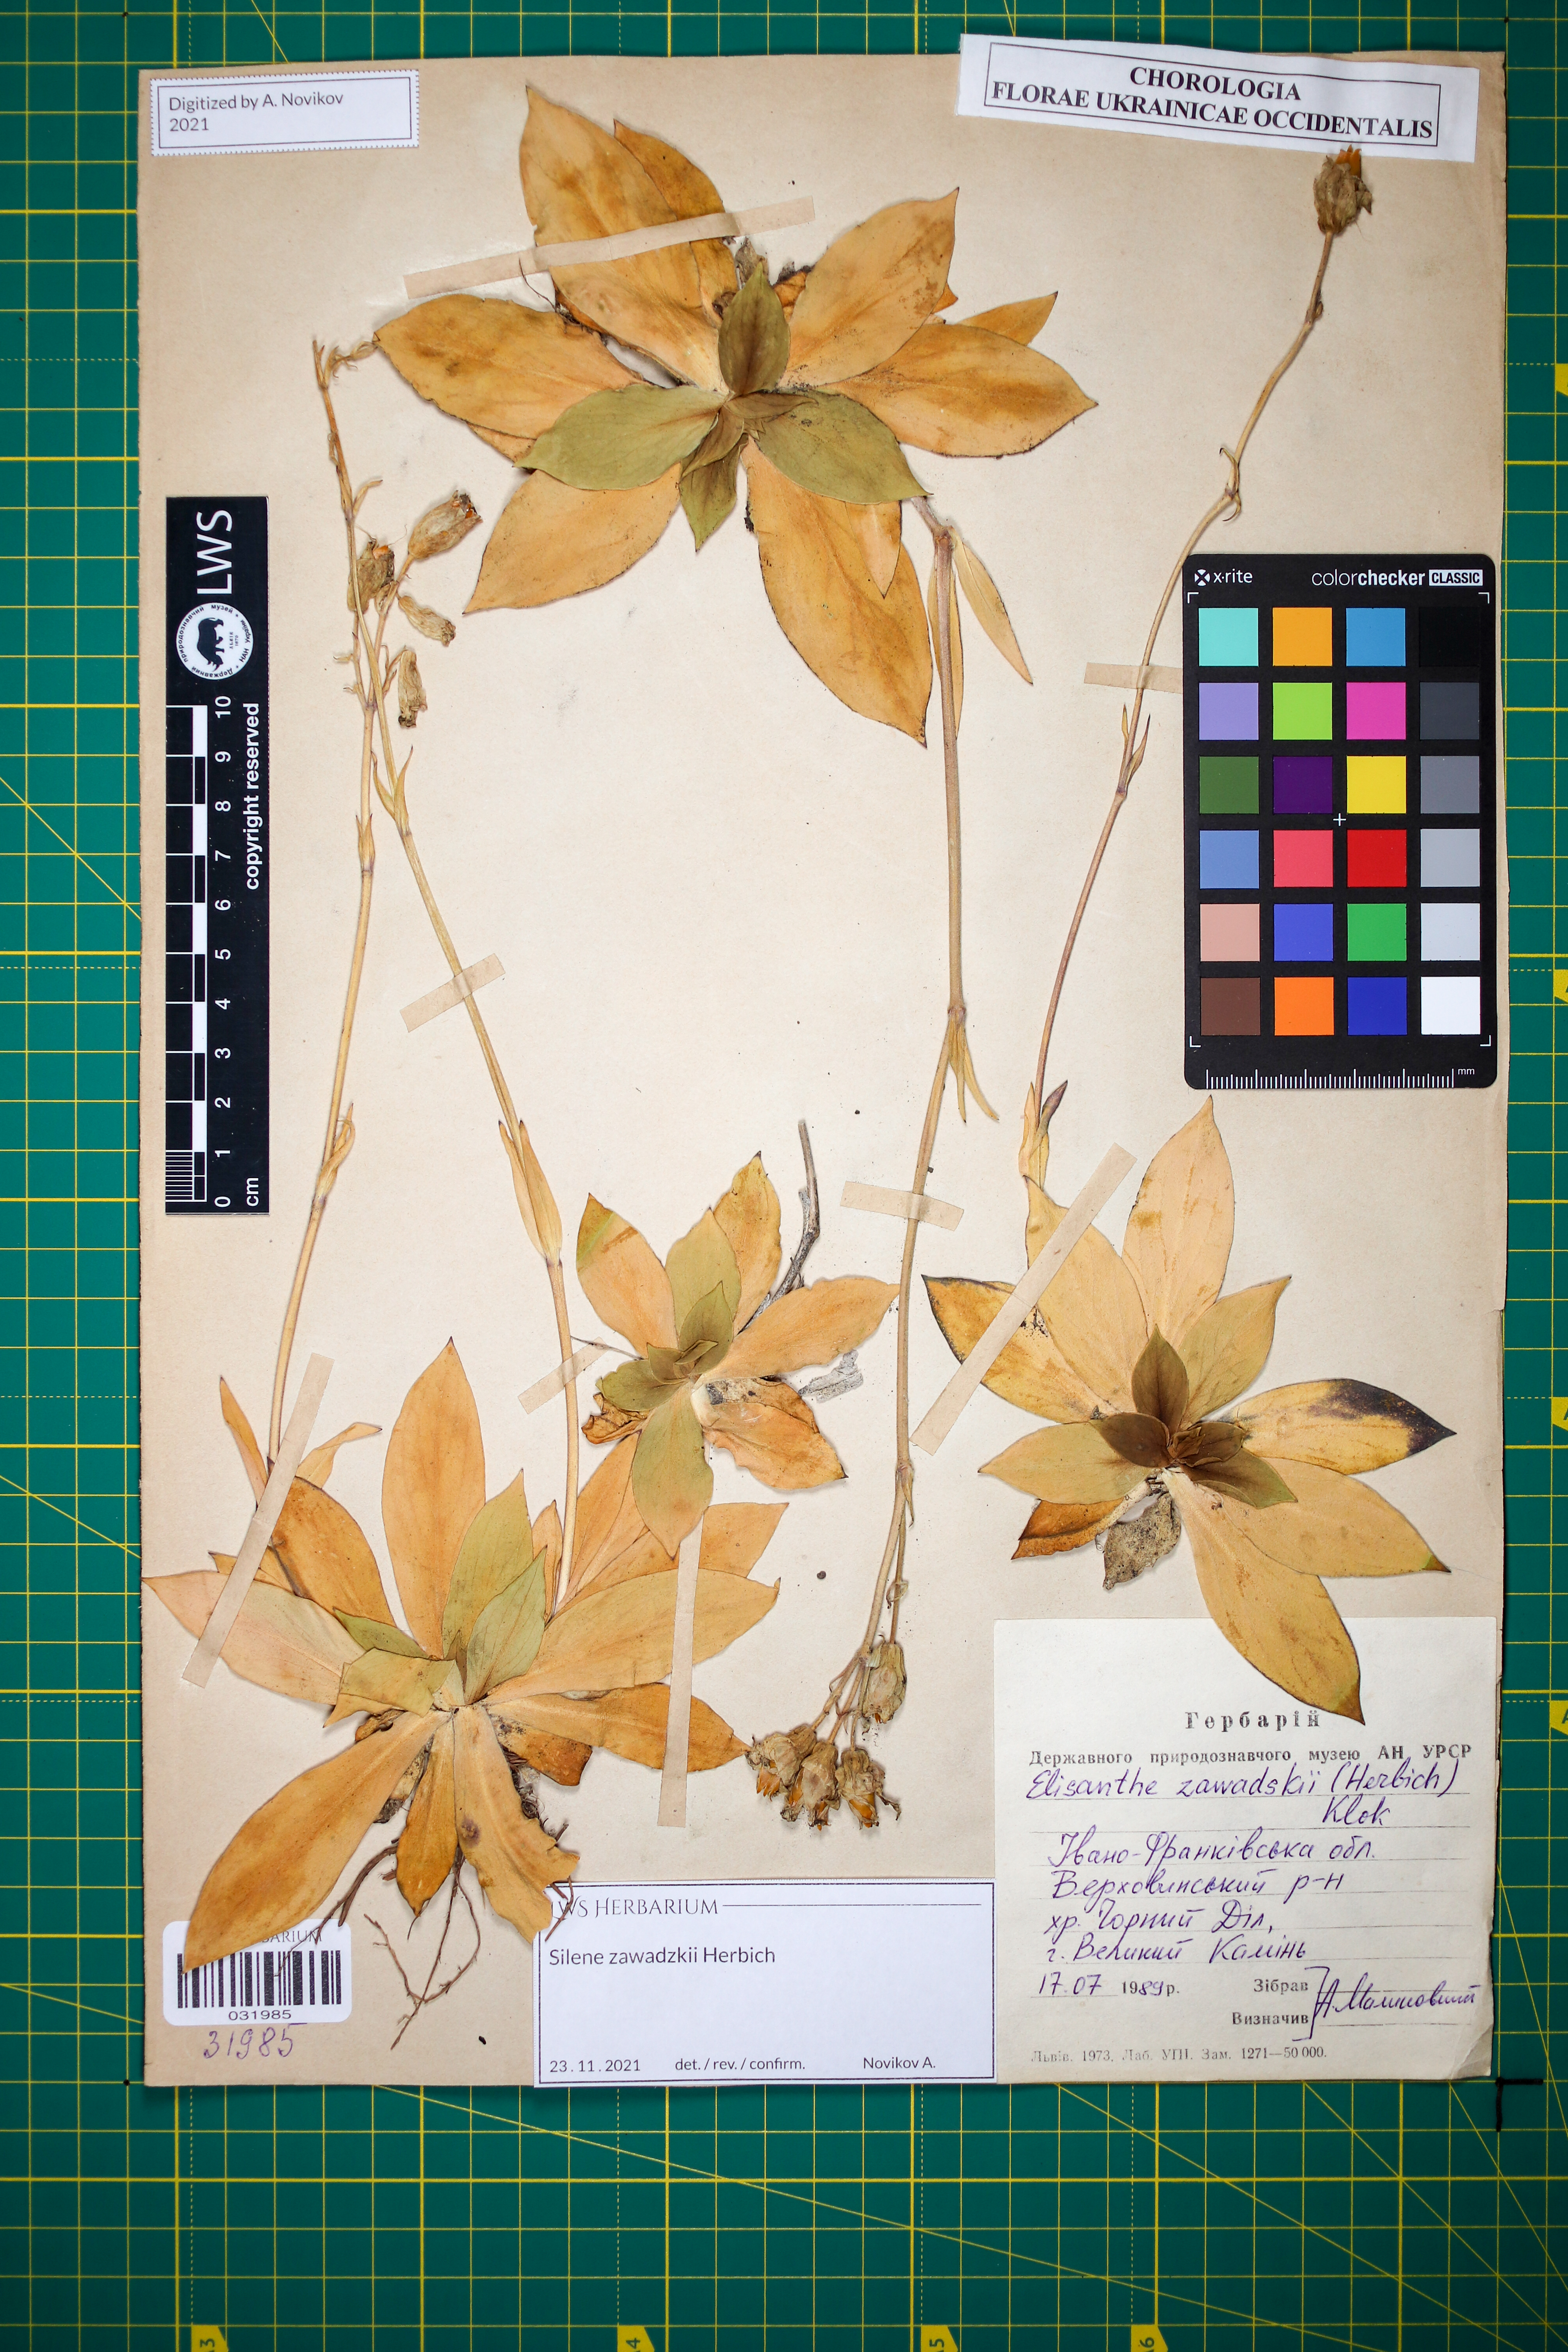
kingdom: Plantae
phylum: Tracheophyta
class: Magnoliopsida
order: Caryophyllales
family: Caryophyllaceae
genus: Silene
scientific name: Silene zawadzkii
